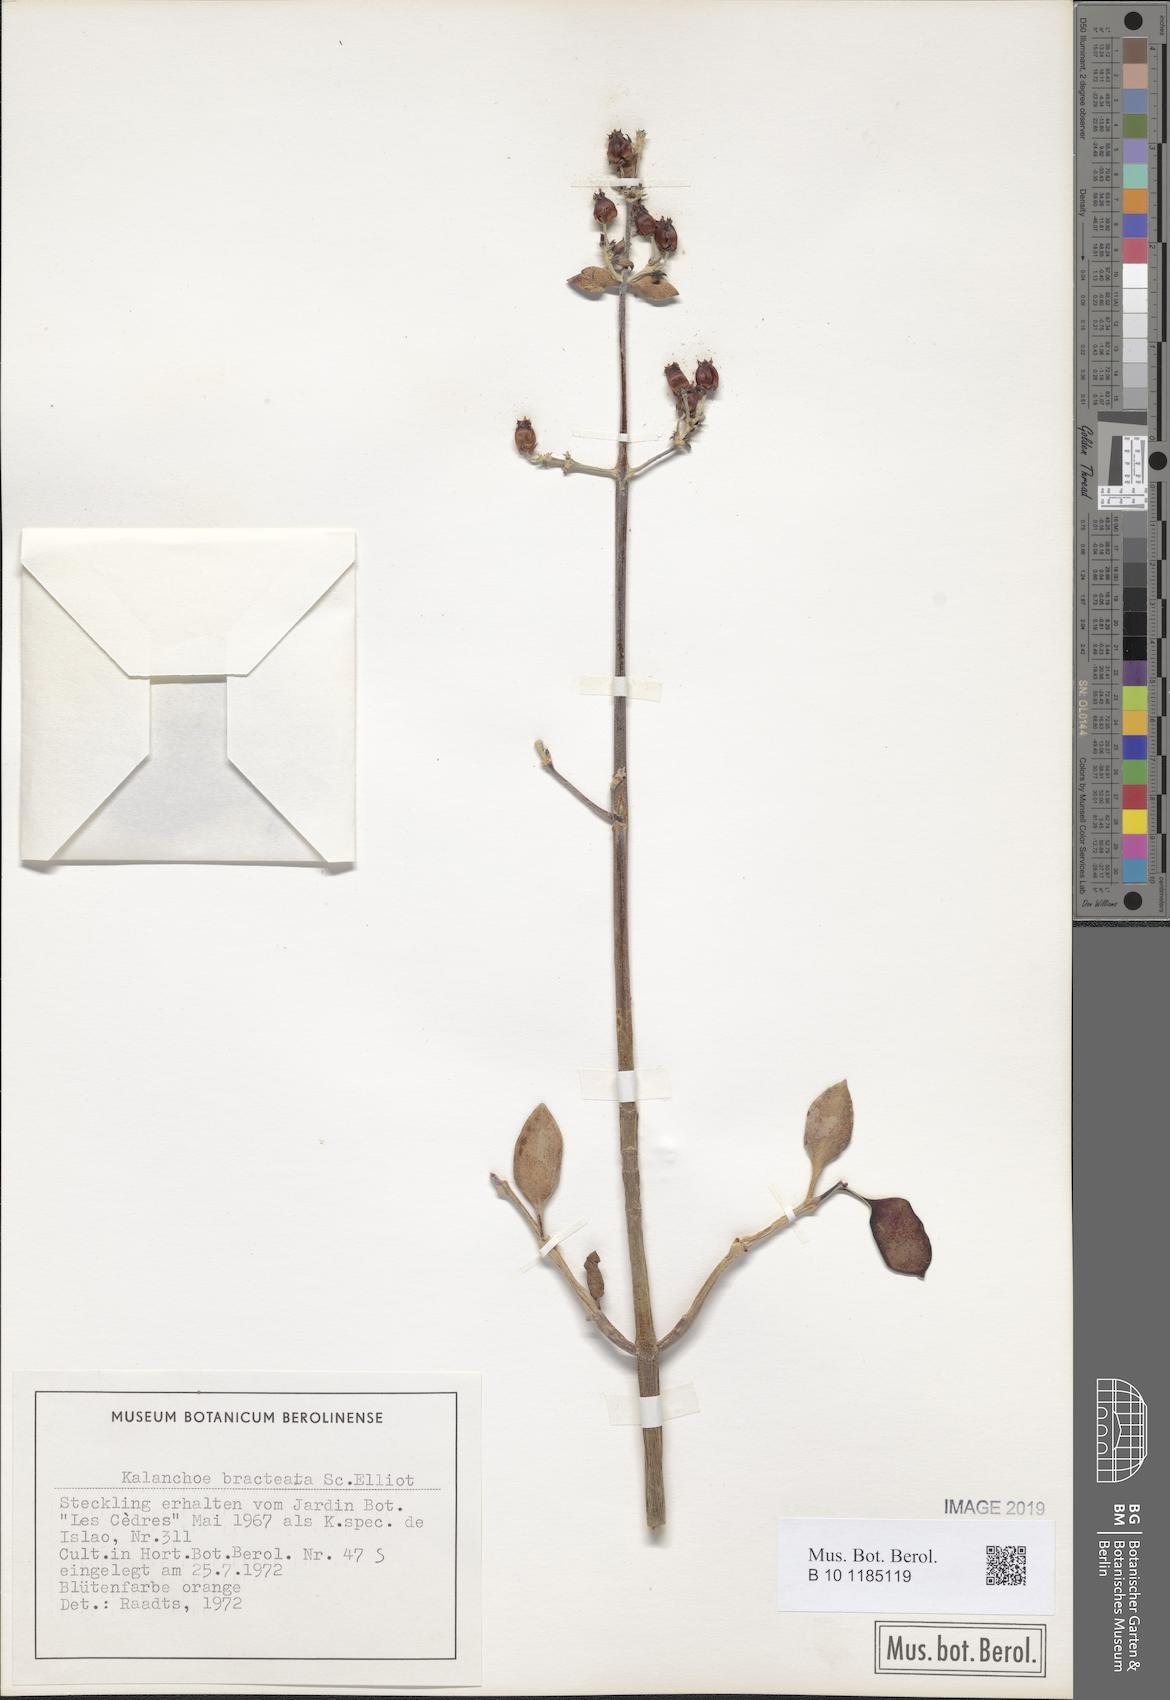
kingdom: Plantae
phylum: Tracheophyta
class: Magnoliopsida
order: Saxifragales
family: Crassulaceae
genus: Kalanchoe
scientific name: Kalanchoe bracteata
